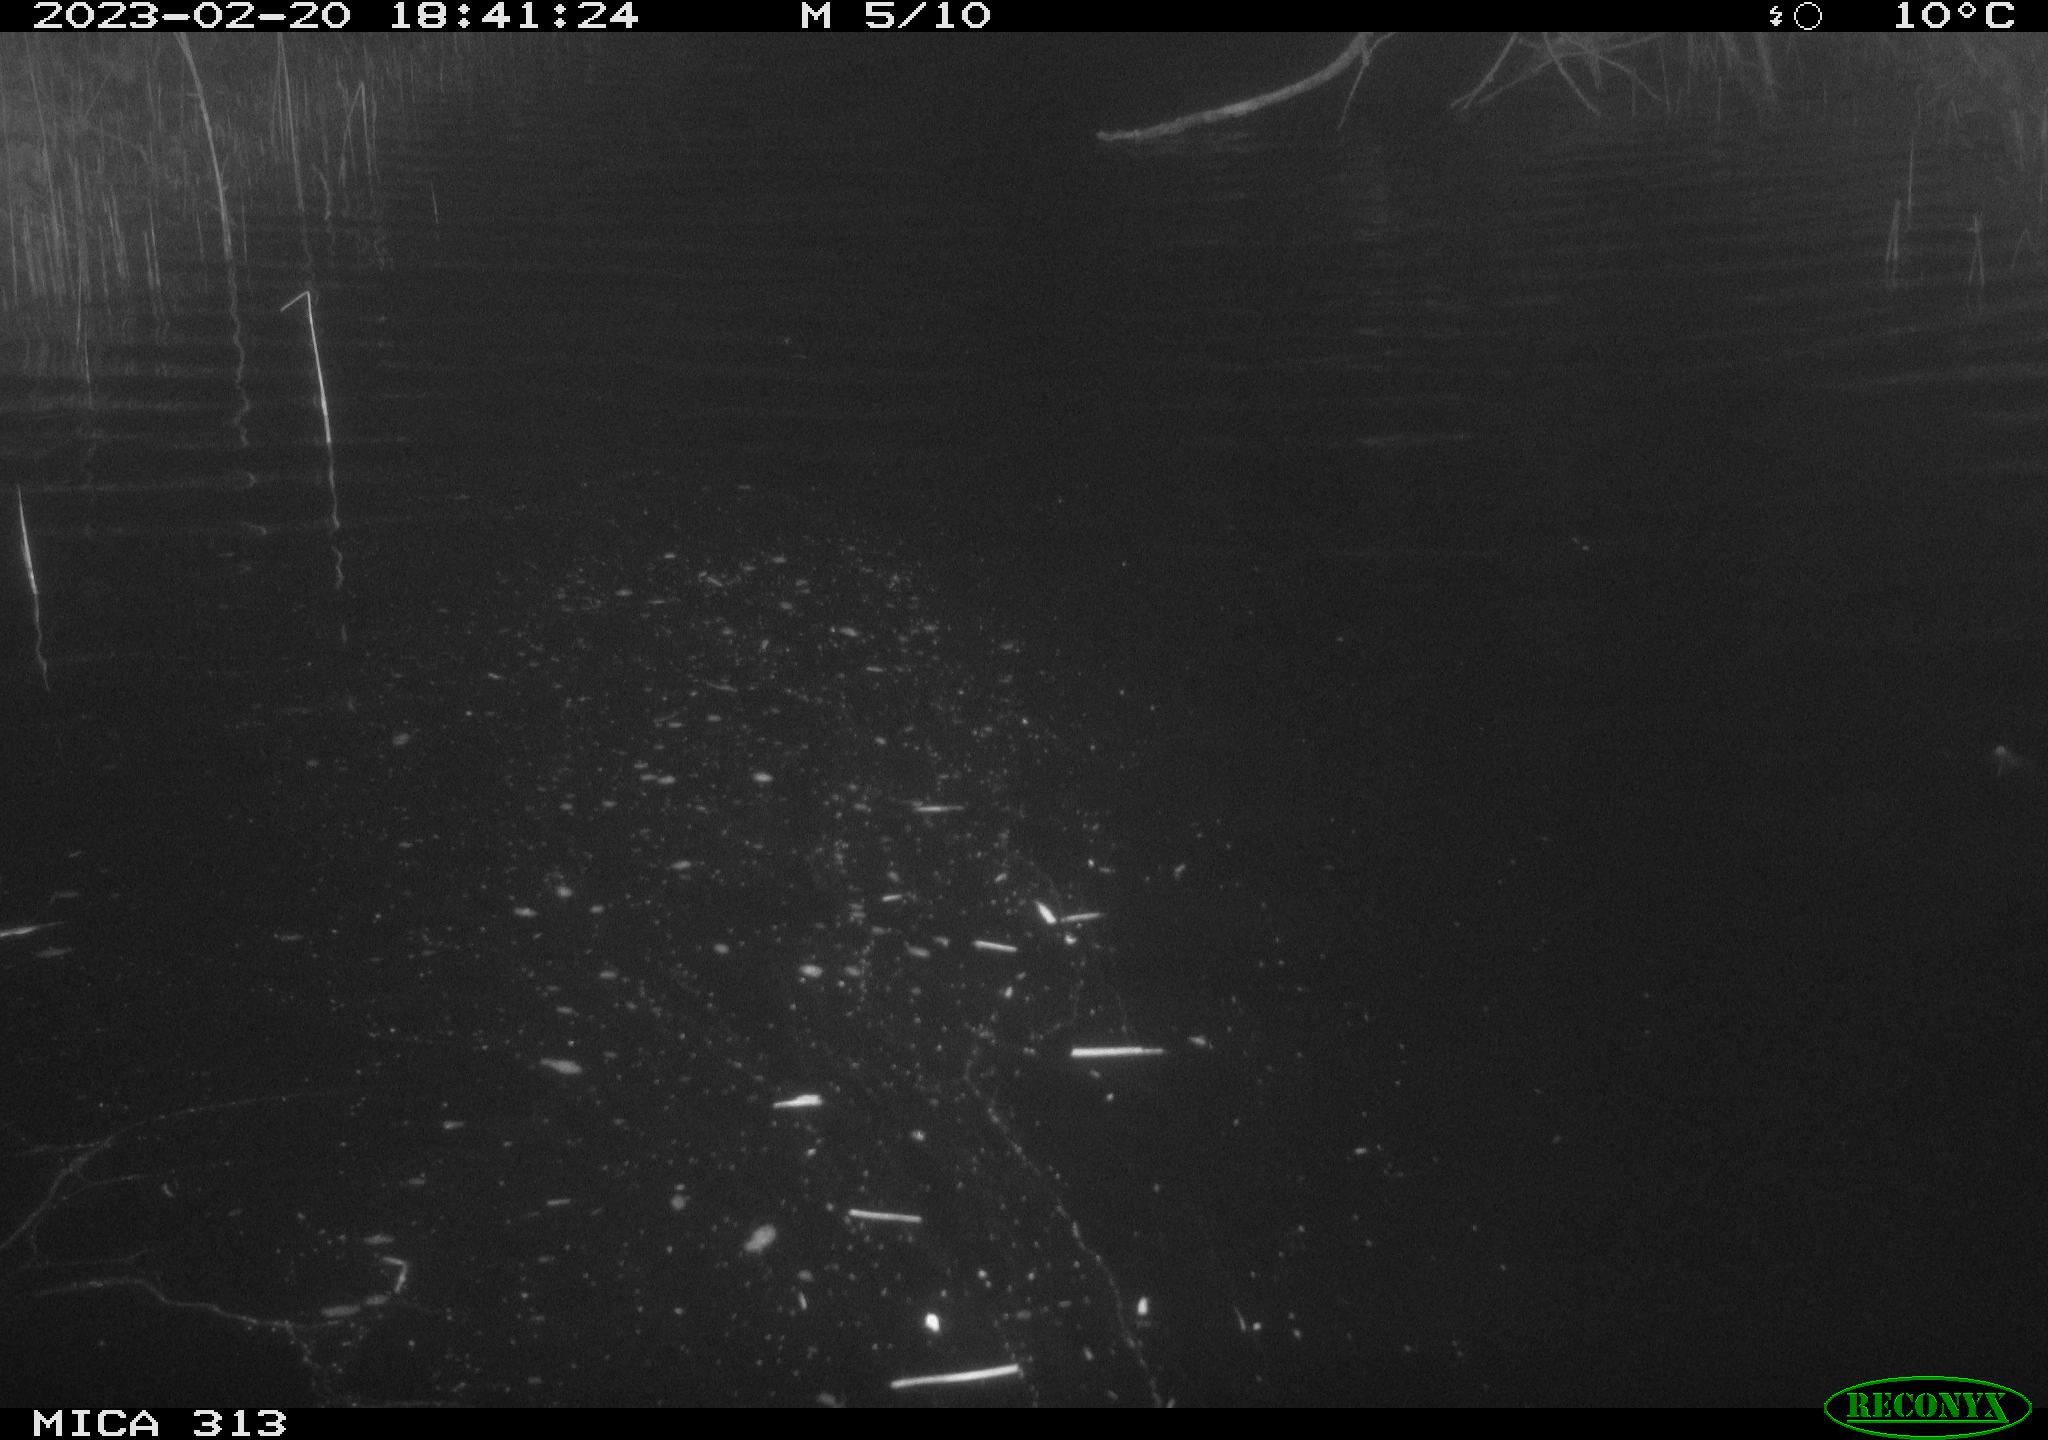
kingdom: Animalia
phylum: Chordata
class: Aves
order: Anseriformes
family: Anatidae
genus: Anas
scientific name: Anas
